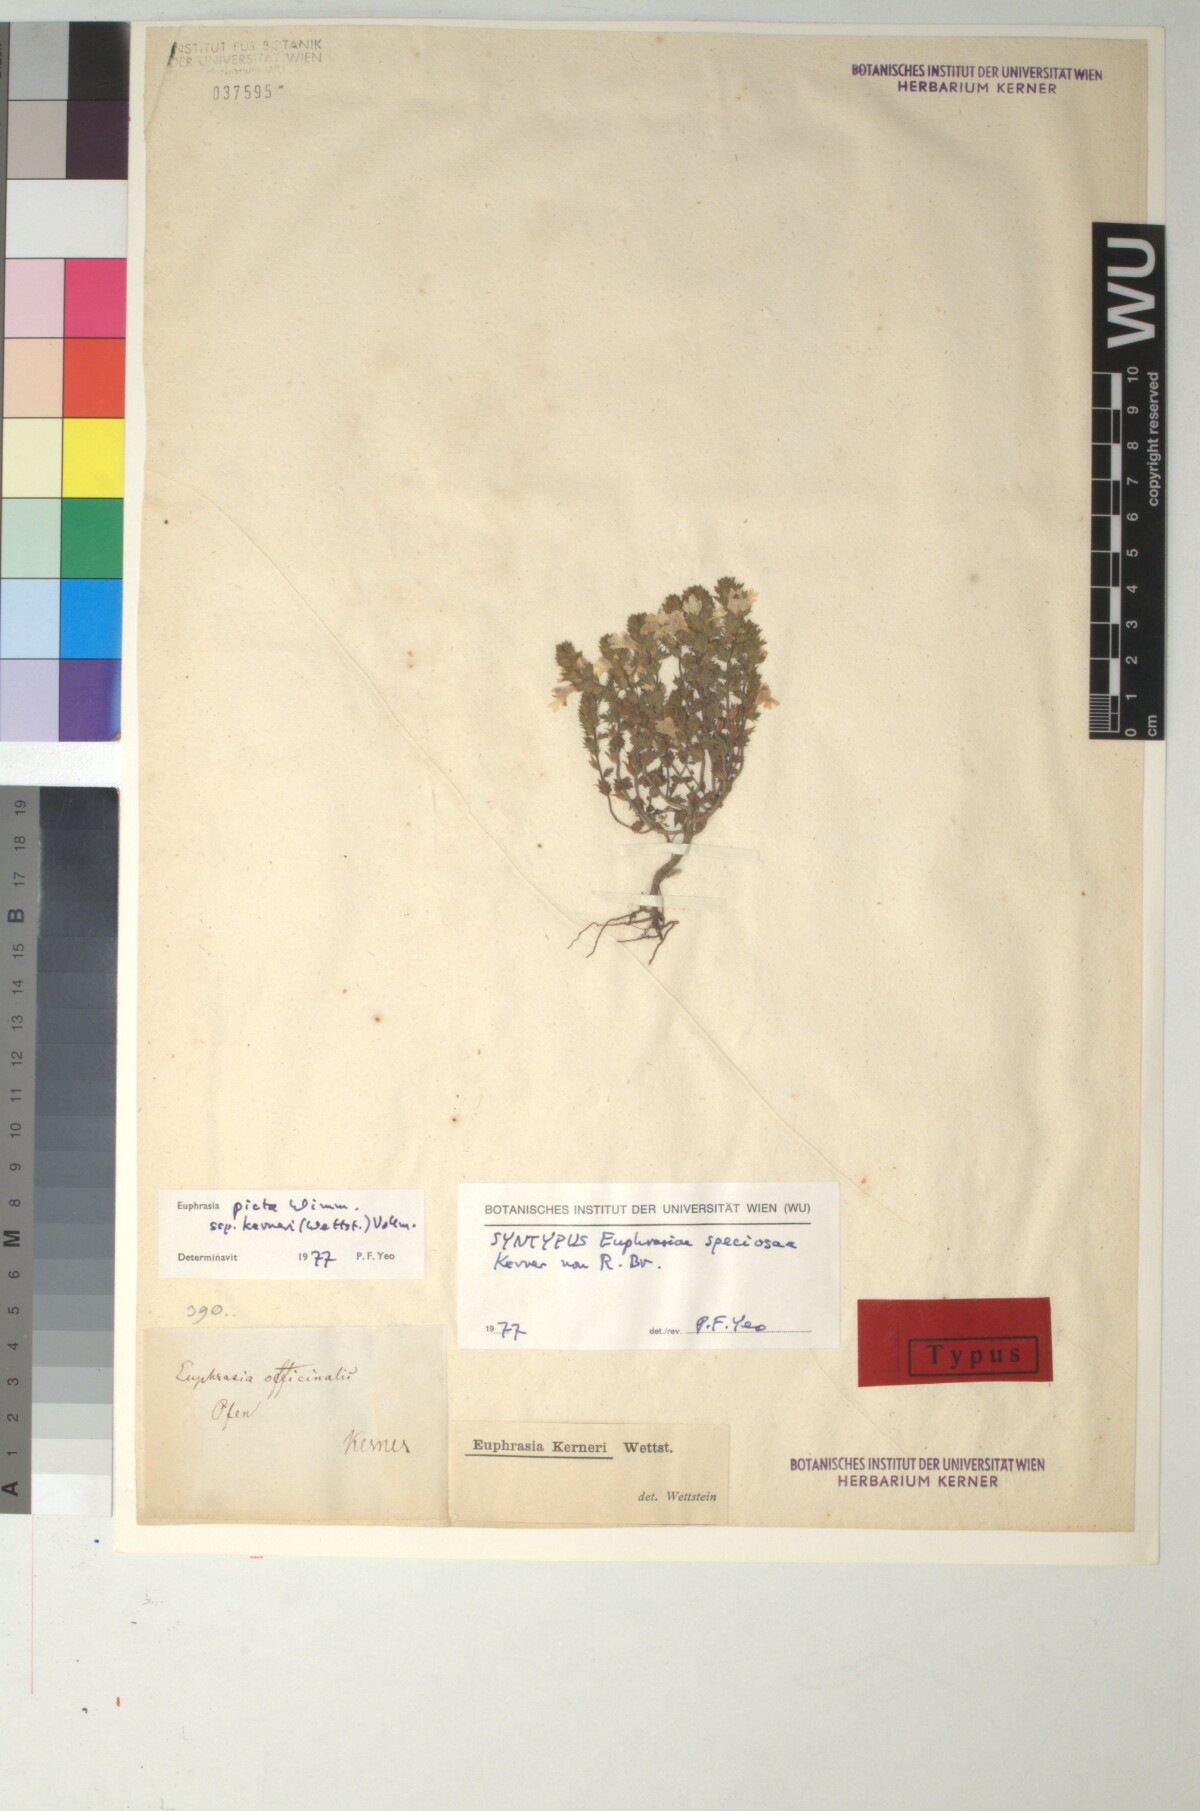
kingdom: Plantae
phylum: Tracheophyta
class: Magnoliopsida
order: Lamiales
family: Orobanchaceae
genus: Euphrasia
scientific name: Euphrasia kerneri
